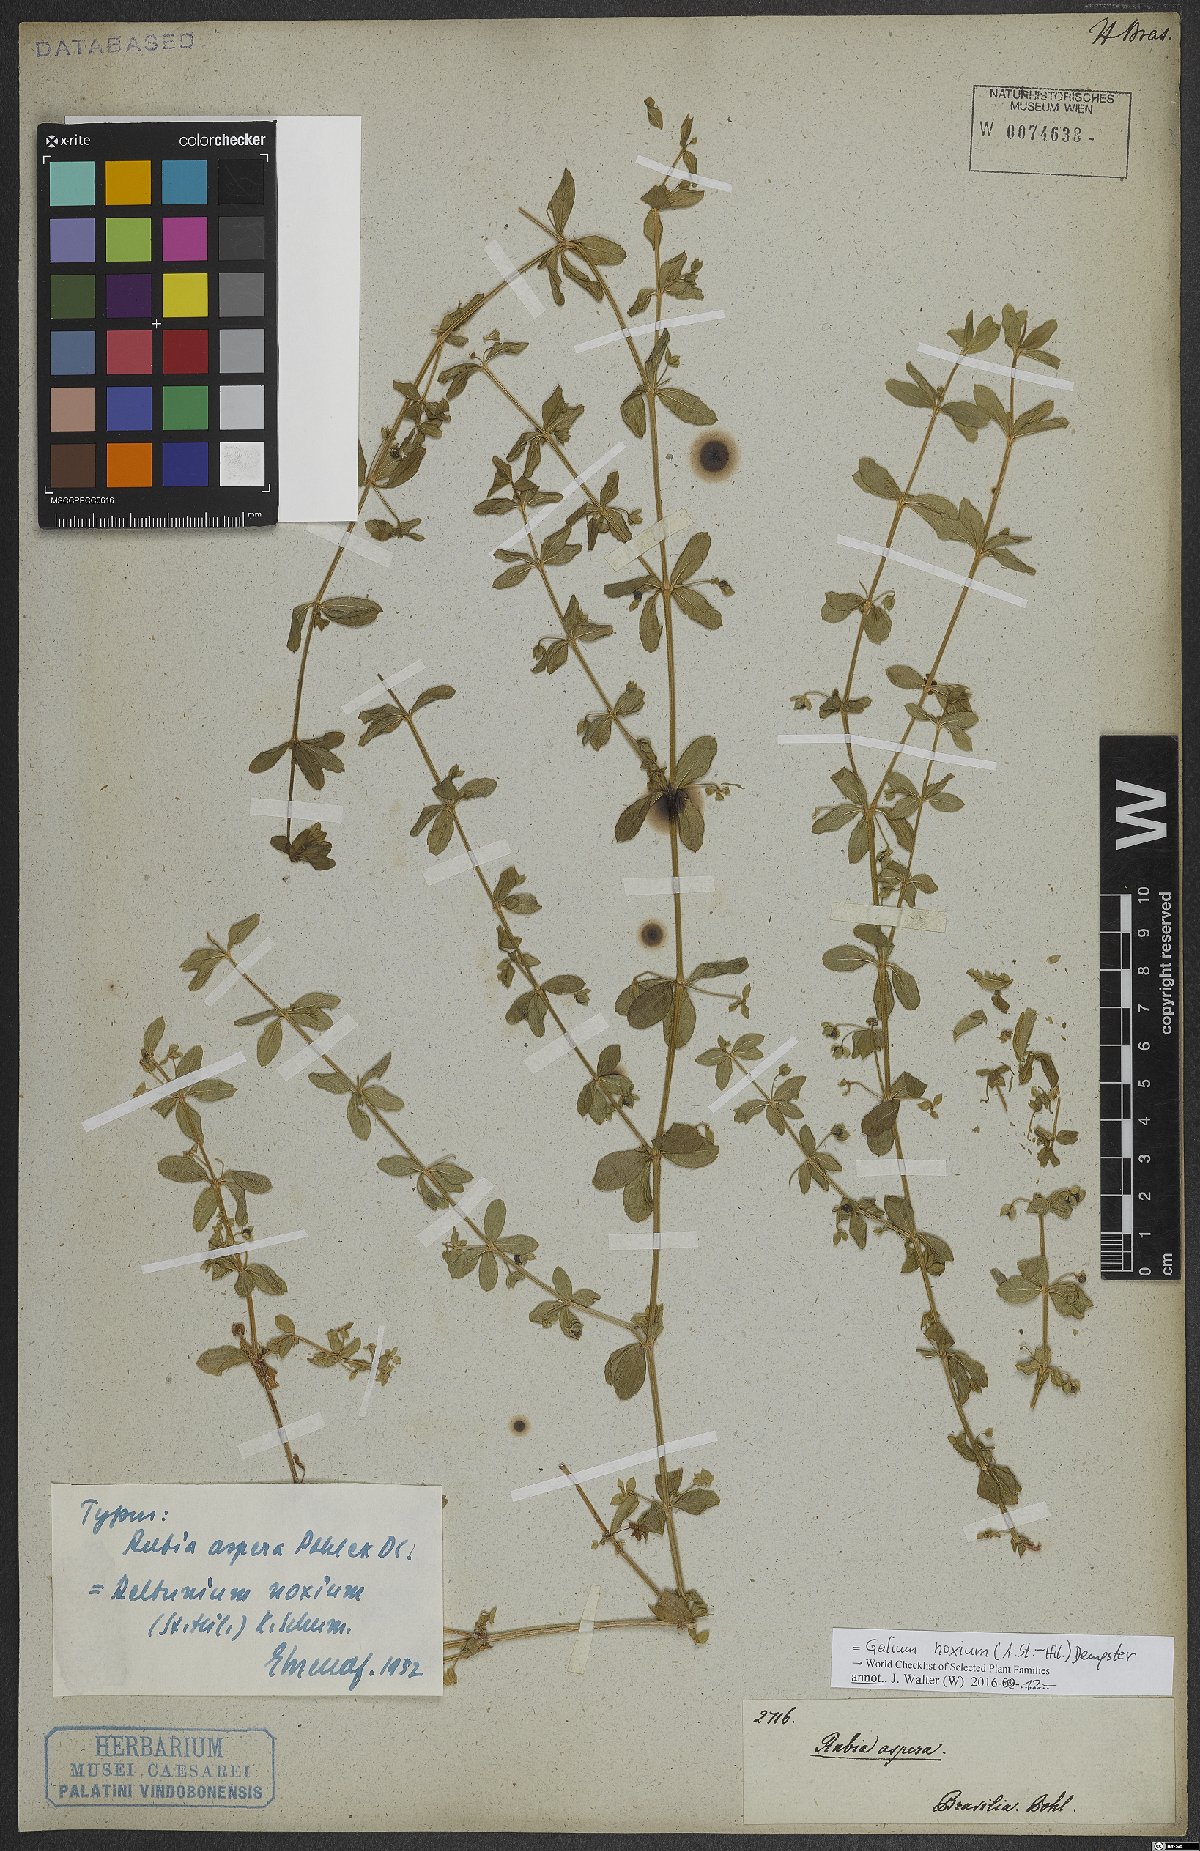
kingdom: Plantae
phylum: Tracheophyta
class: Magnoliopsida
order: Gentianales
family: Rubiaceae
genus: Galium
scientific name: Galium noxium
